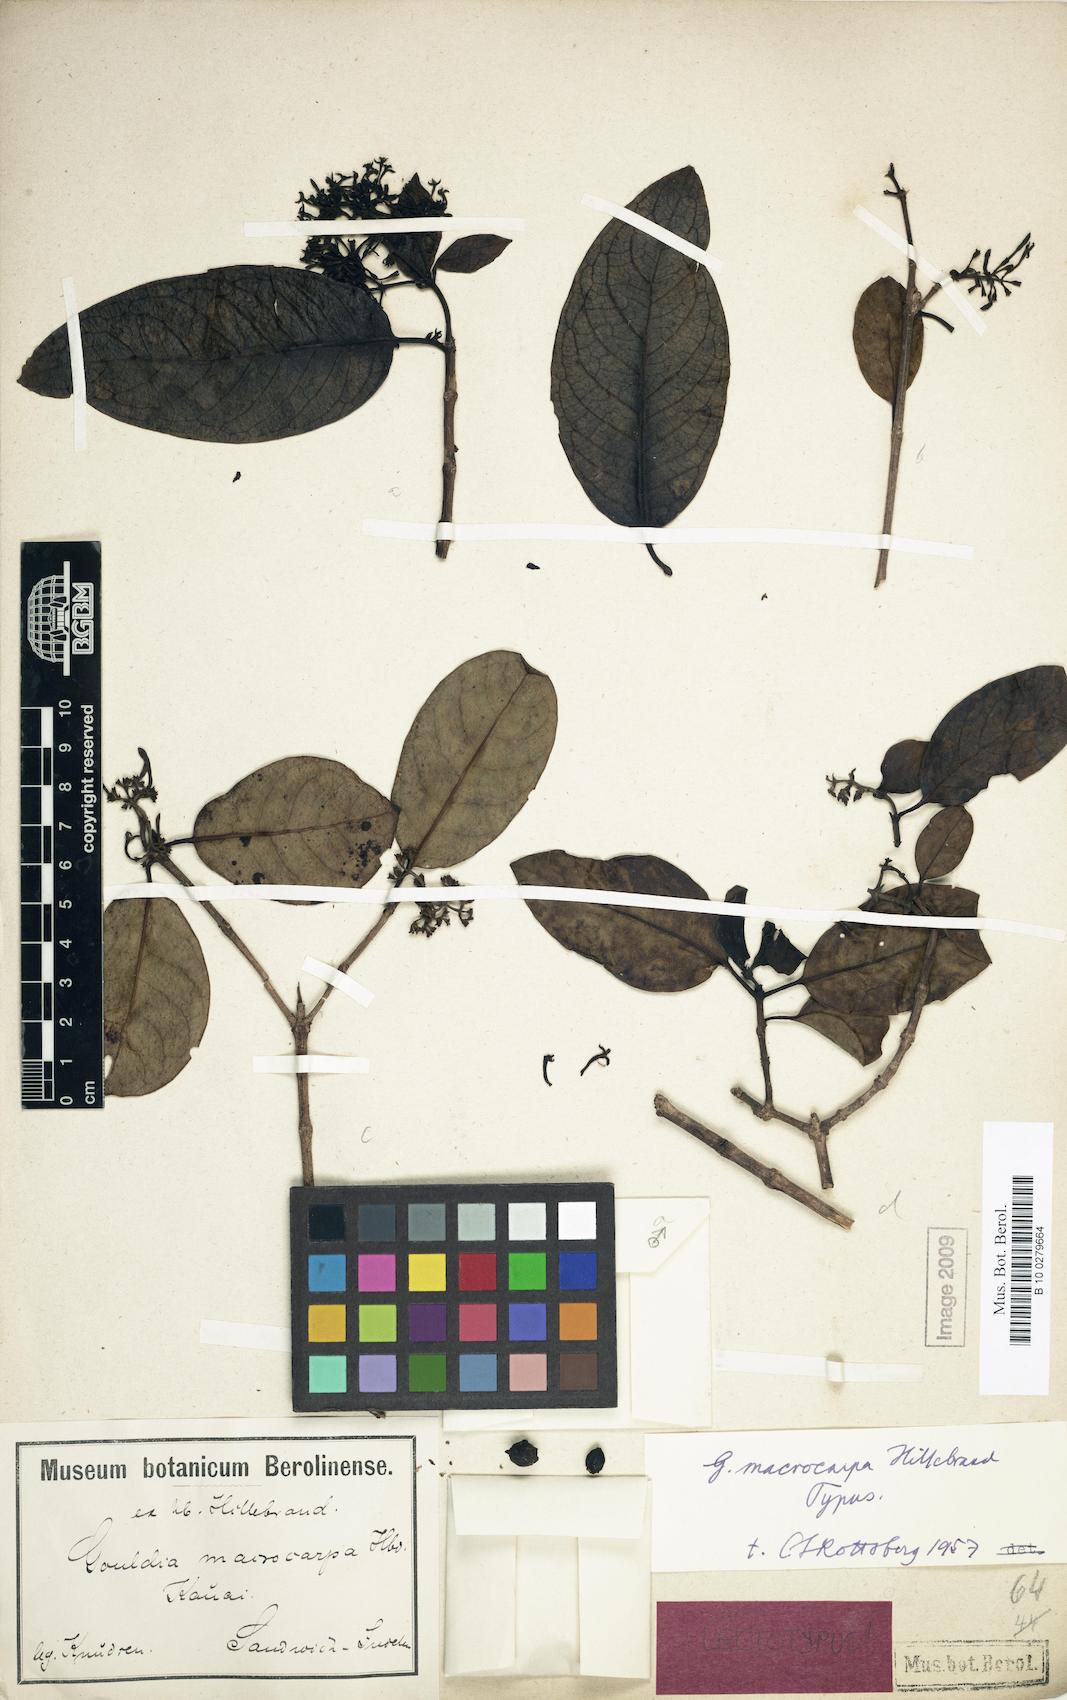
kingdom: Plantae
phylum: Tracheophyta
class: Magnoliopsida
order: Gentianales
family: Rubiaceae
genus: Kadua
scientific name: Kadua affinis
